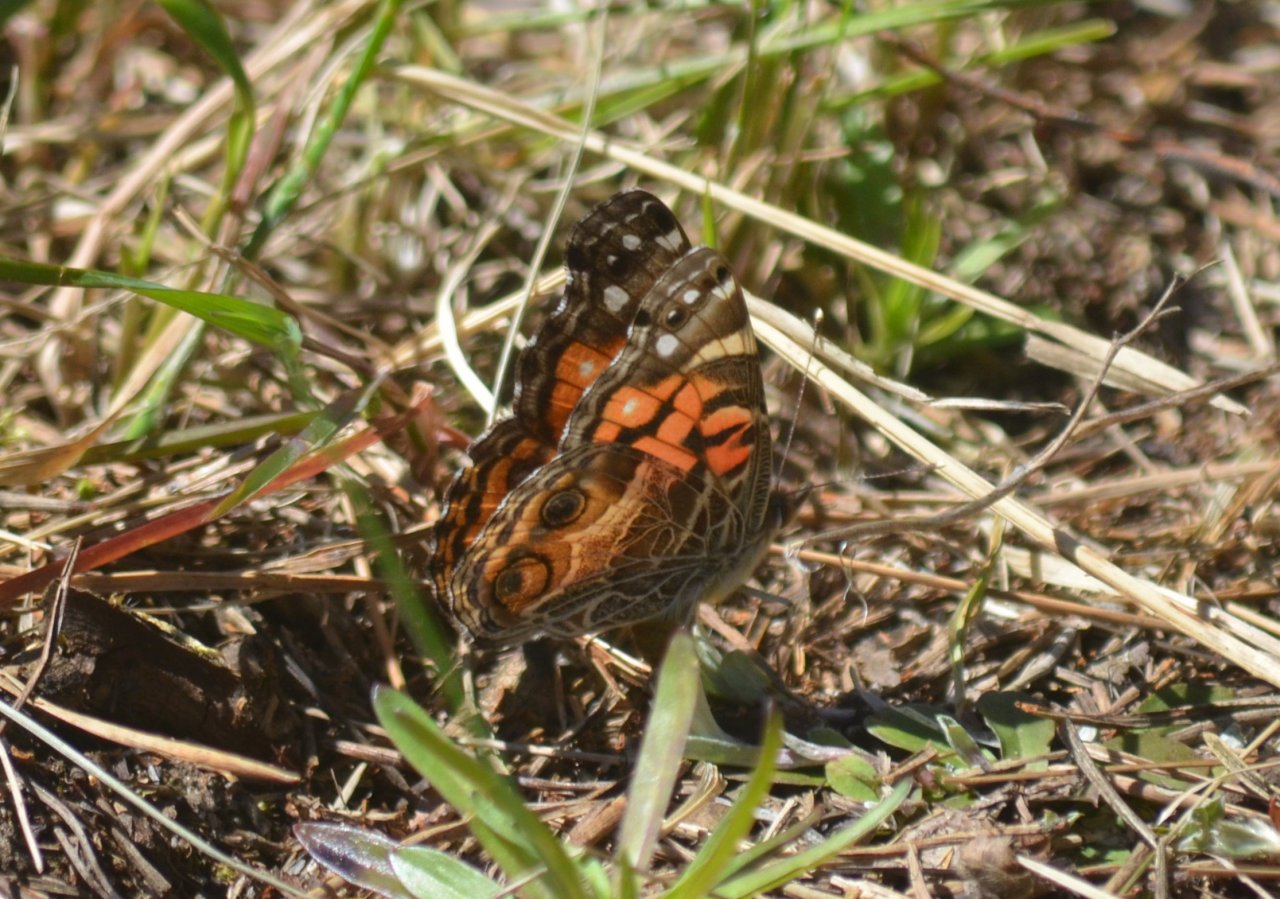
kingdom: Animalia
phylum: Arthropoda
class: Insecta
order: Lepidoptera
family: Nymphalidae
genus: Vanessa
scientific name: Vanessa virginiensis
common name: American Lady
